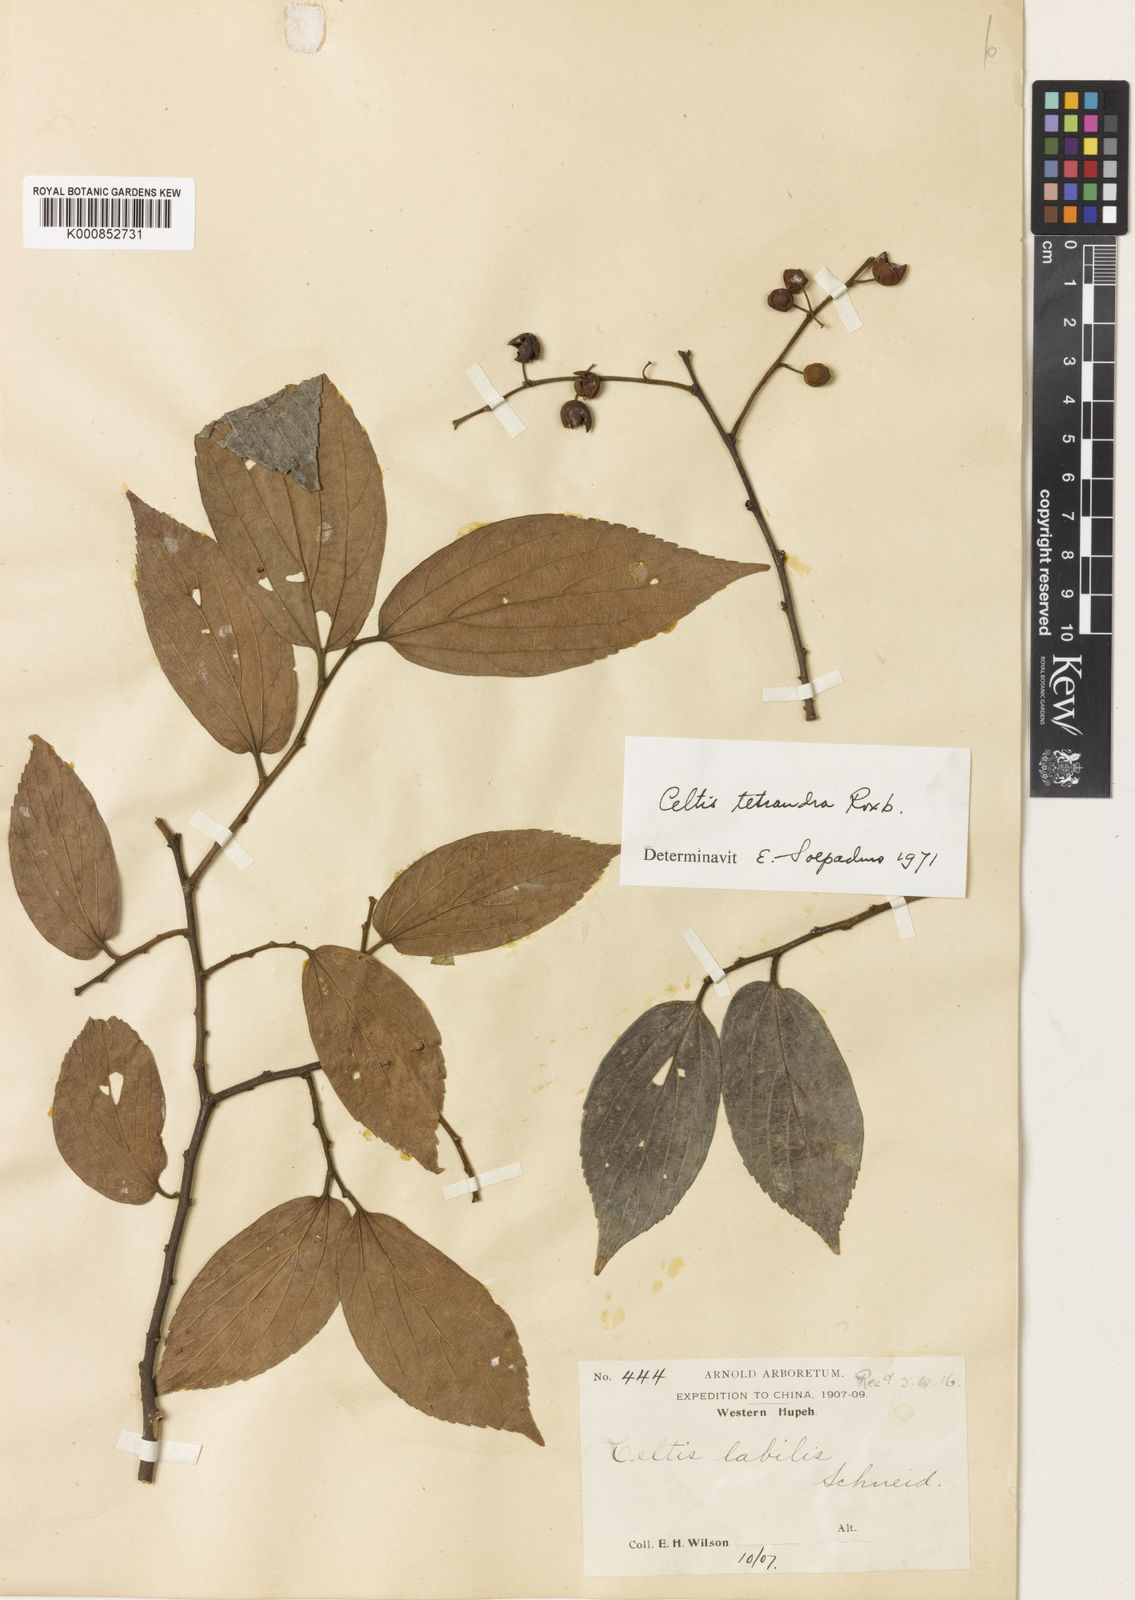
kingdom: Plantae
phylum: Tracheophyta
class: Magnoliopsida
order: Rosales
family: Cannabaceae
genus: Celtis
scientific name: Celtis sinensis
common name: Chinese hackberry
